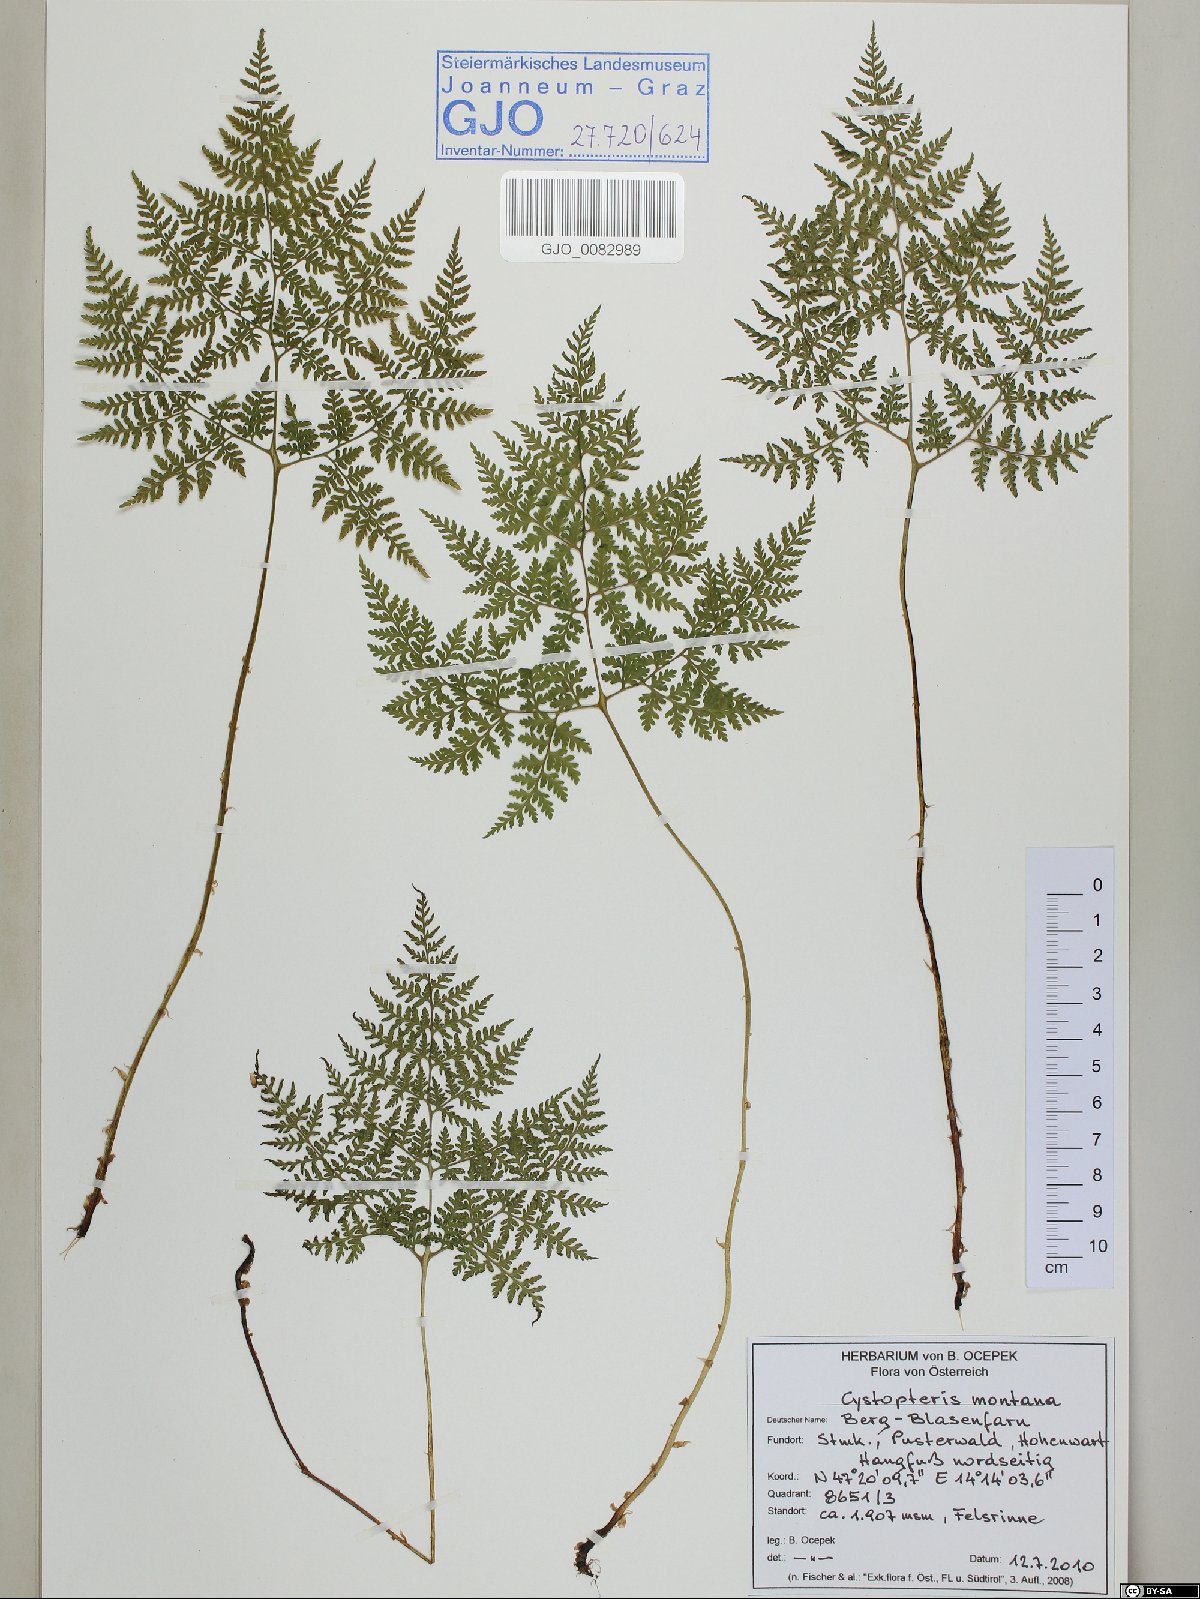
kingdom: Plantae
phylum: Tracheophyta
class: Polypodiopsida
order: Polypodiales
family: Cystopteridaceae
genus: Cystopteris
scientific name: Cystopteris montana
